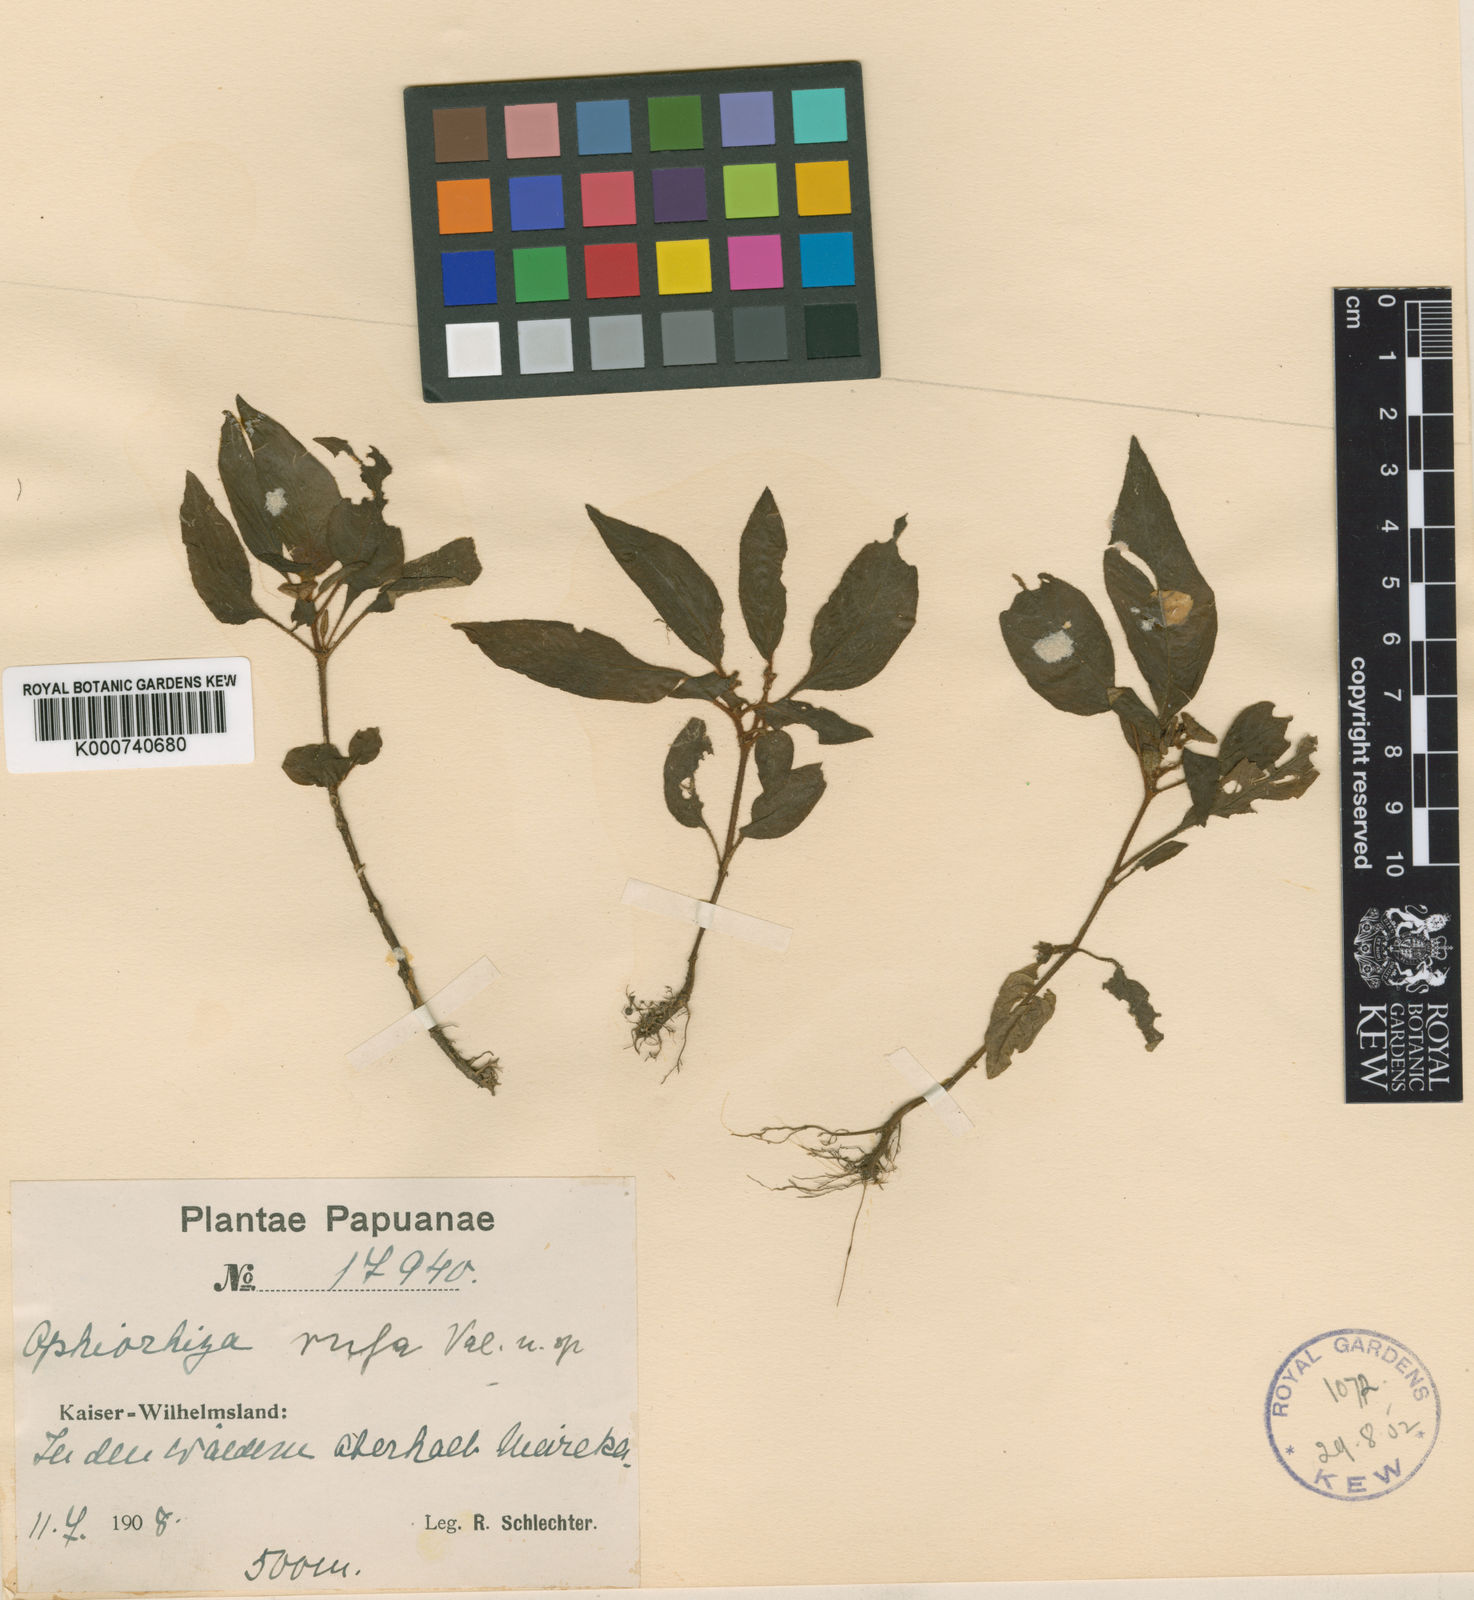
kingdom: Plantae
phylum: Tracheophyta
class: Magnoliopsida
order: Gentianales
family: Rubiaceae
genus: Ophiorrhiza
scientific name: Ophiorrhiza rufa
